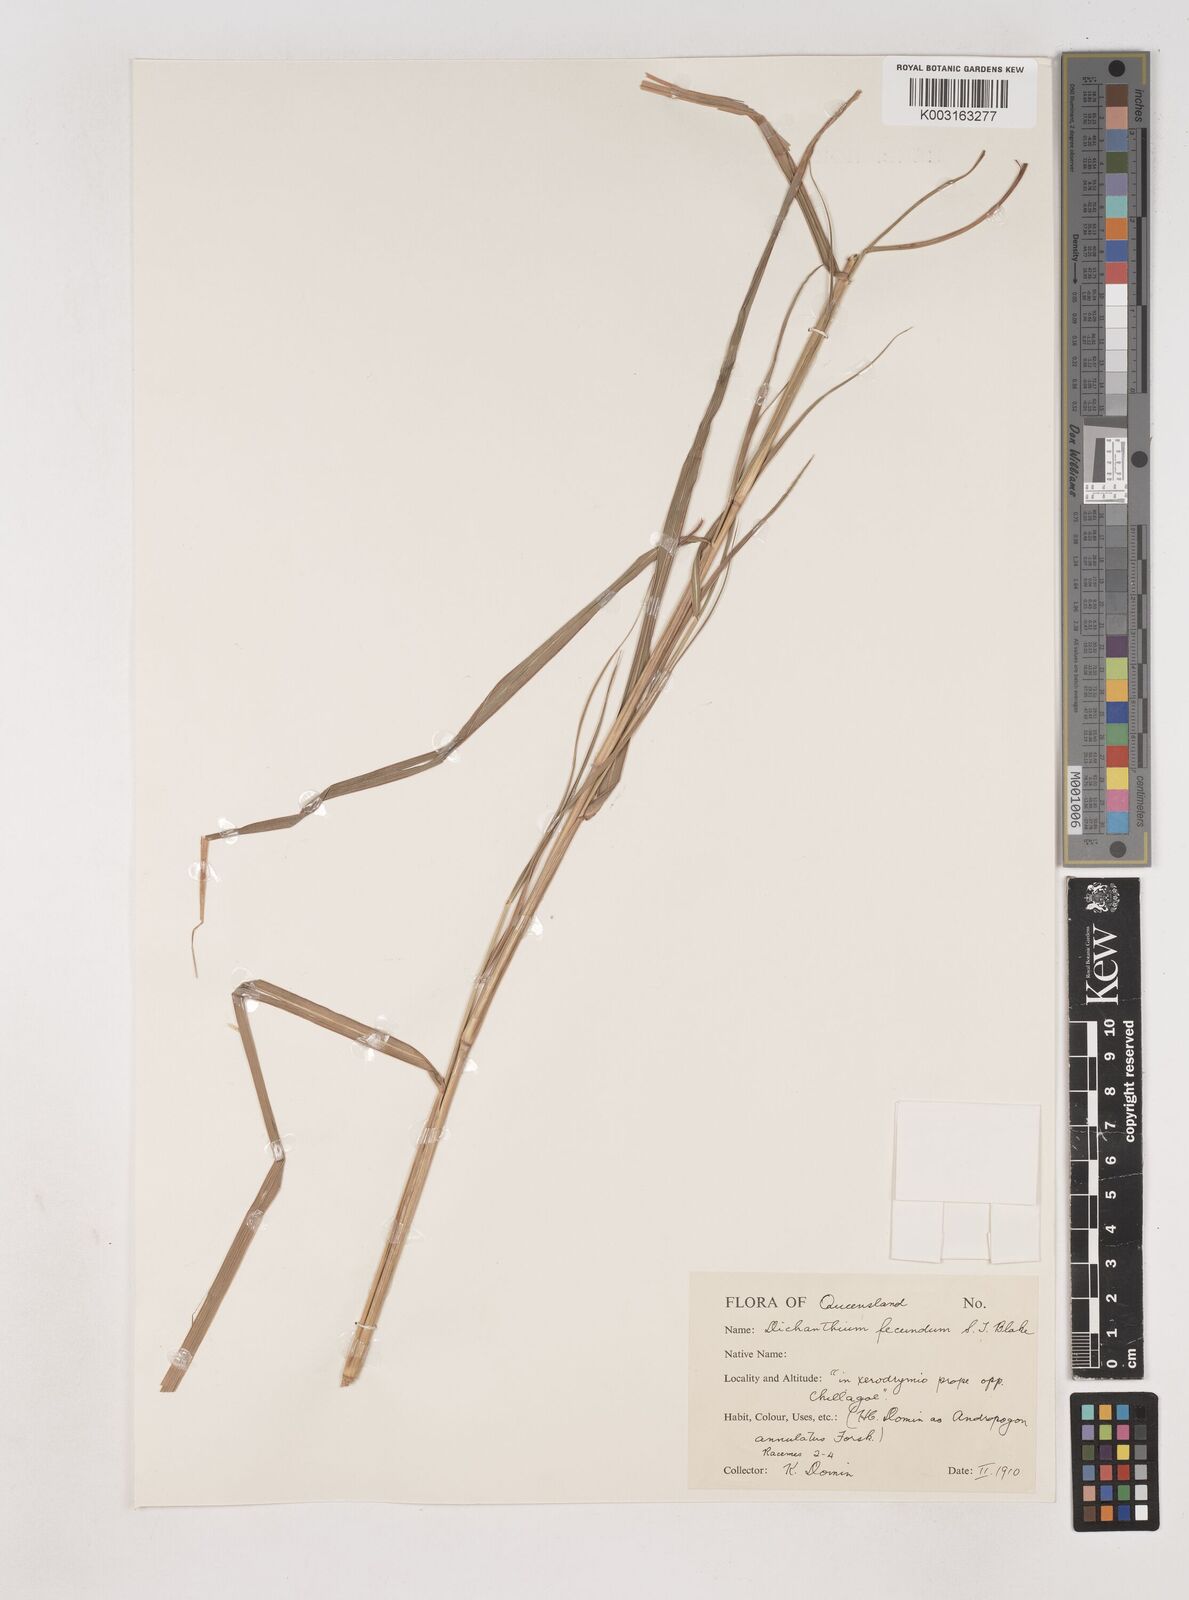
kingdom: Plantae
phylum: Tracheophyta
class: Liliopsida
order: Poales
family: Poaceae
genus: Dichanthium
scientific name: Dichanthium fecundum
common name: Bundle-bundle
